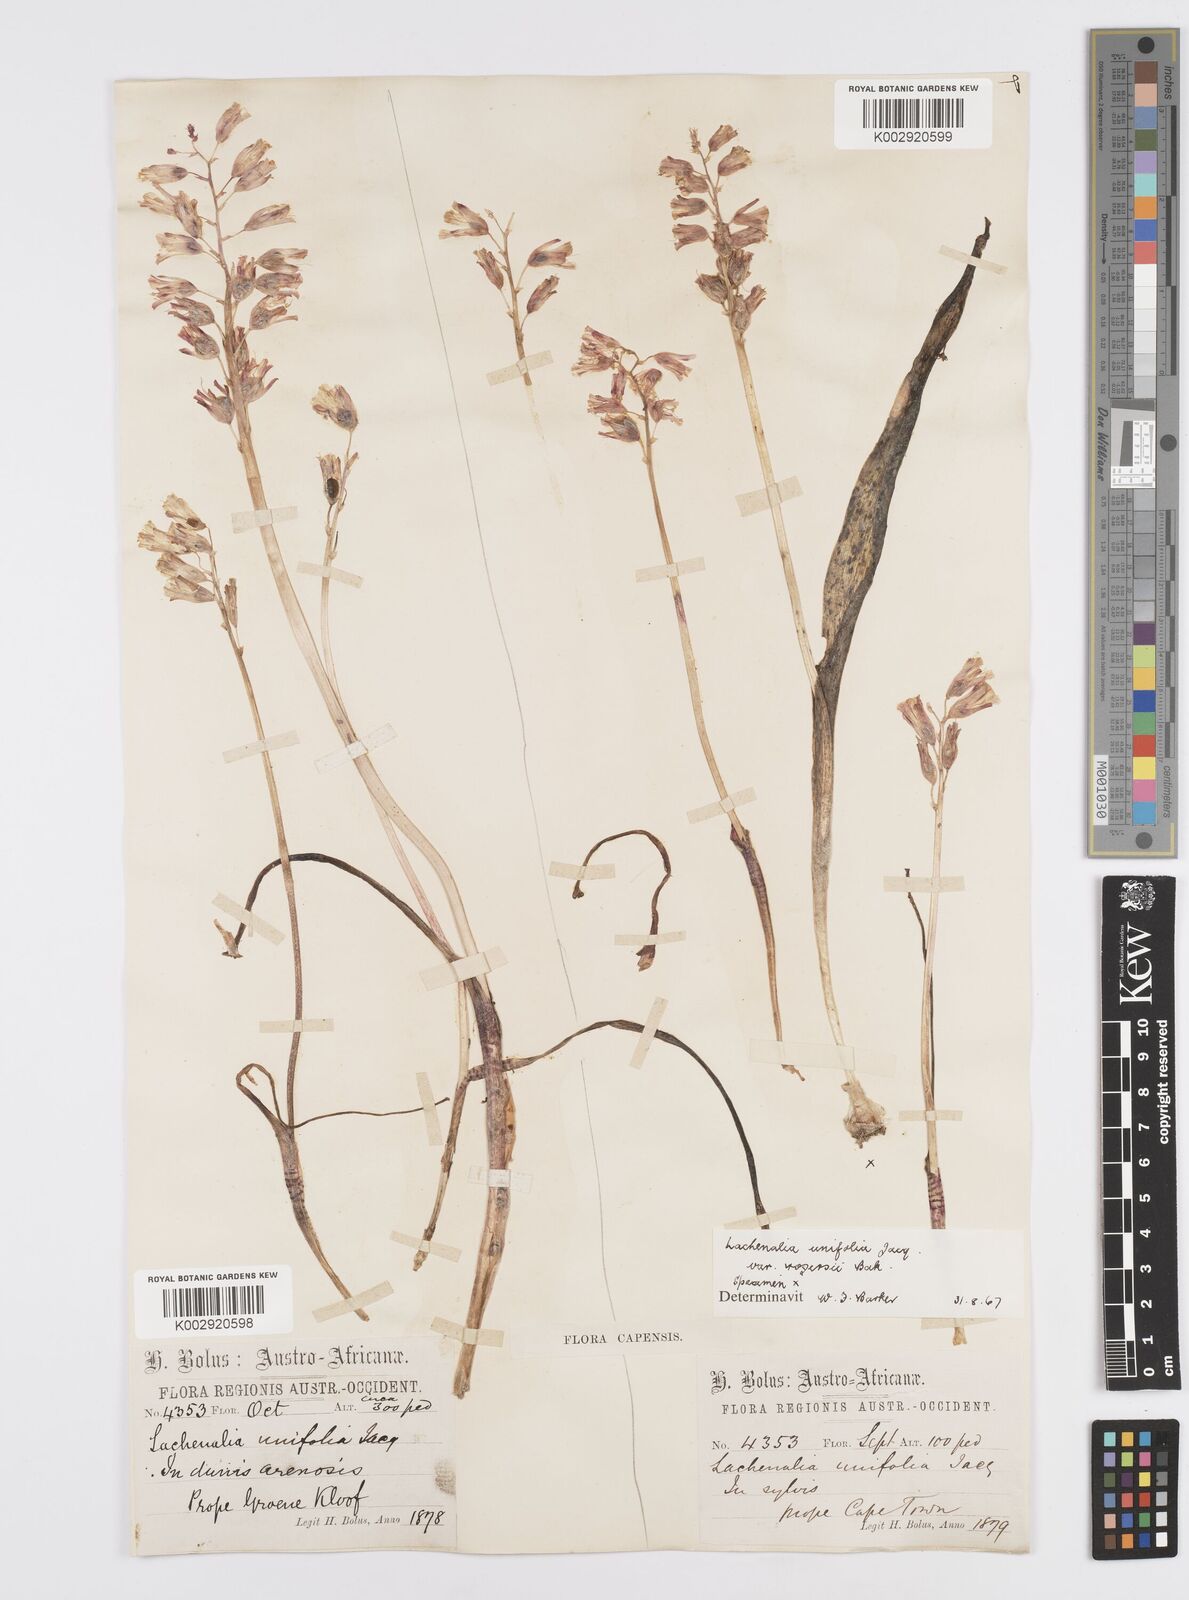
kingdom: Plantae
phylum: Tracheophyta
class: Liliopsida
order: Asparagales
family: Asparagaceae
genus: Lachenalia
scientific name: Lachenalia unifolia
